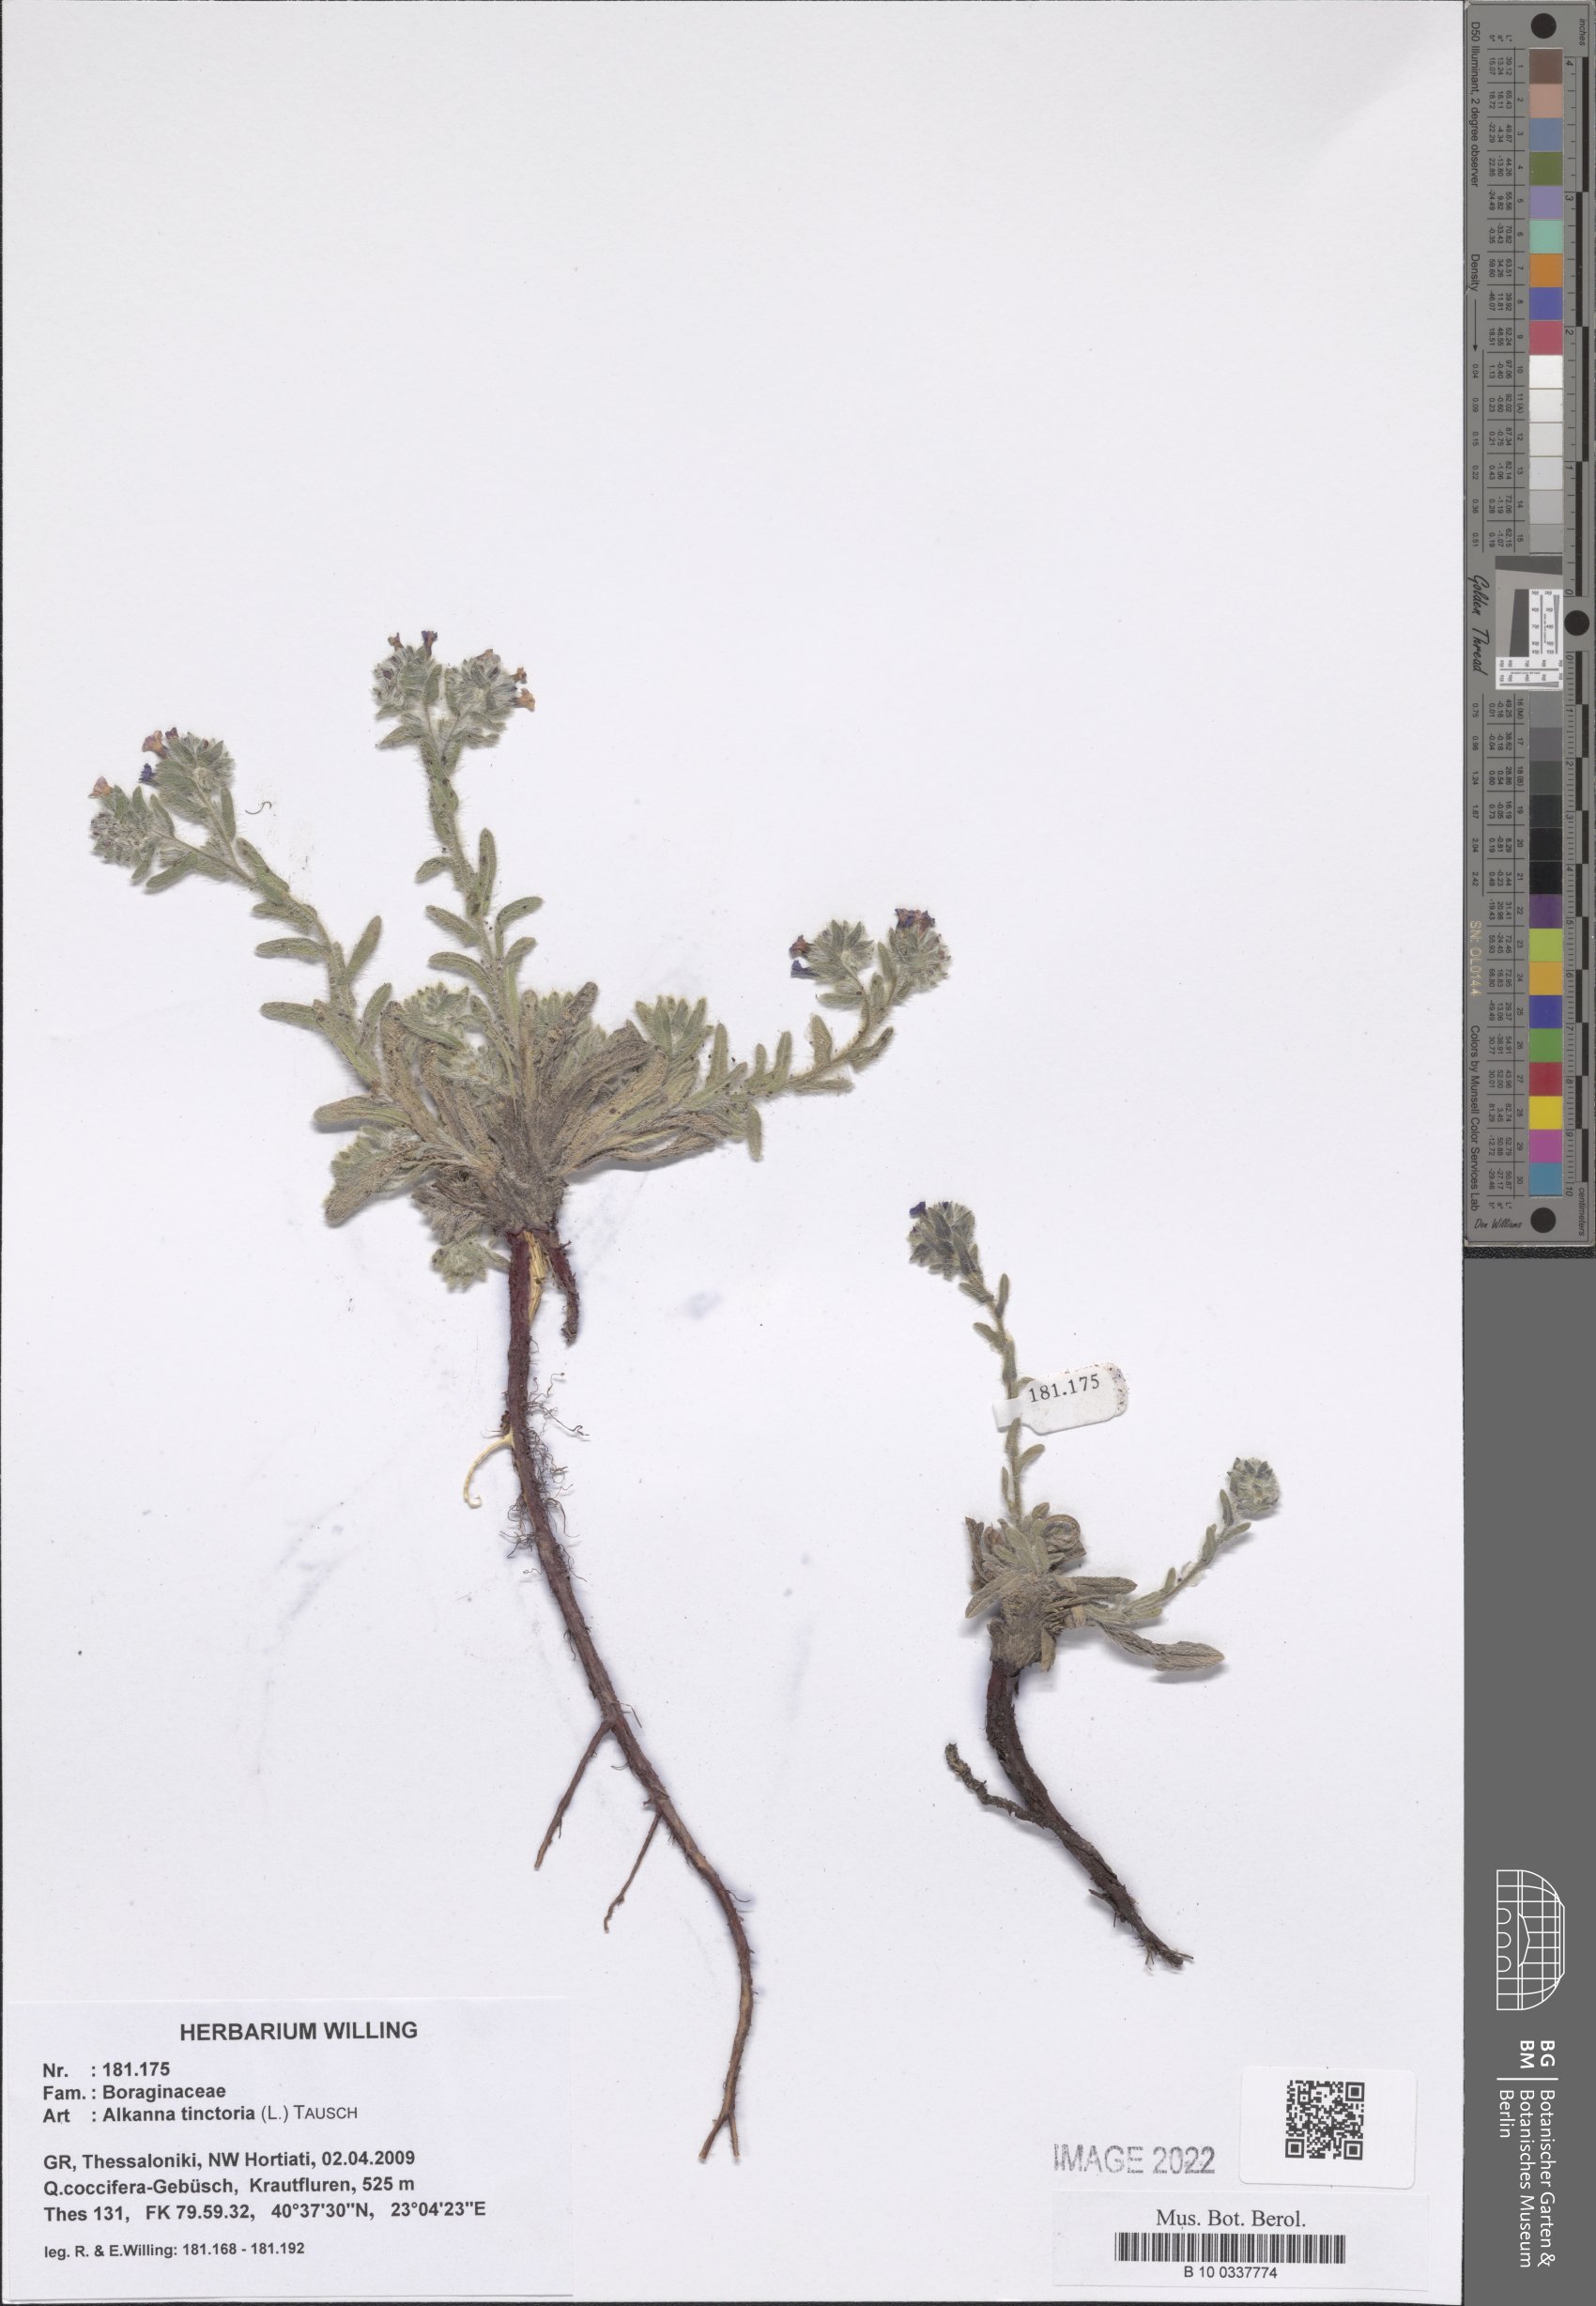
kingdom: Plantae
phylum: Tracheophyta
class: Magnoliopsida
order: Boraginales
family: Boraginaceae
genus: Alkanna
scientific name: Alkanna tinctoria
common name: Dyer's-alkanet
